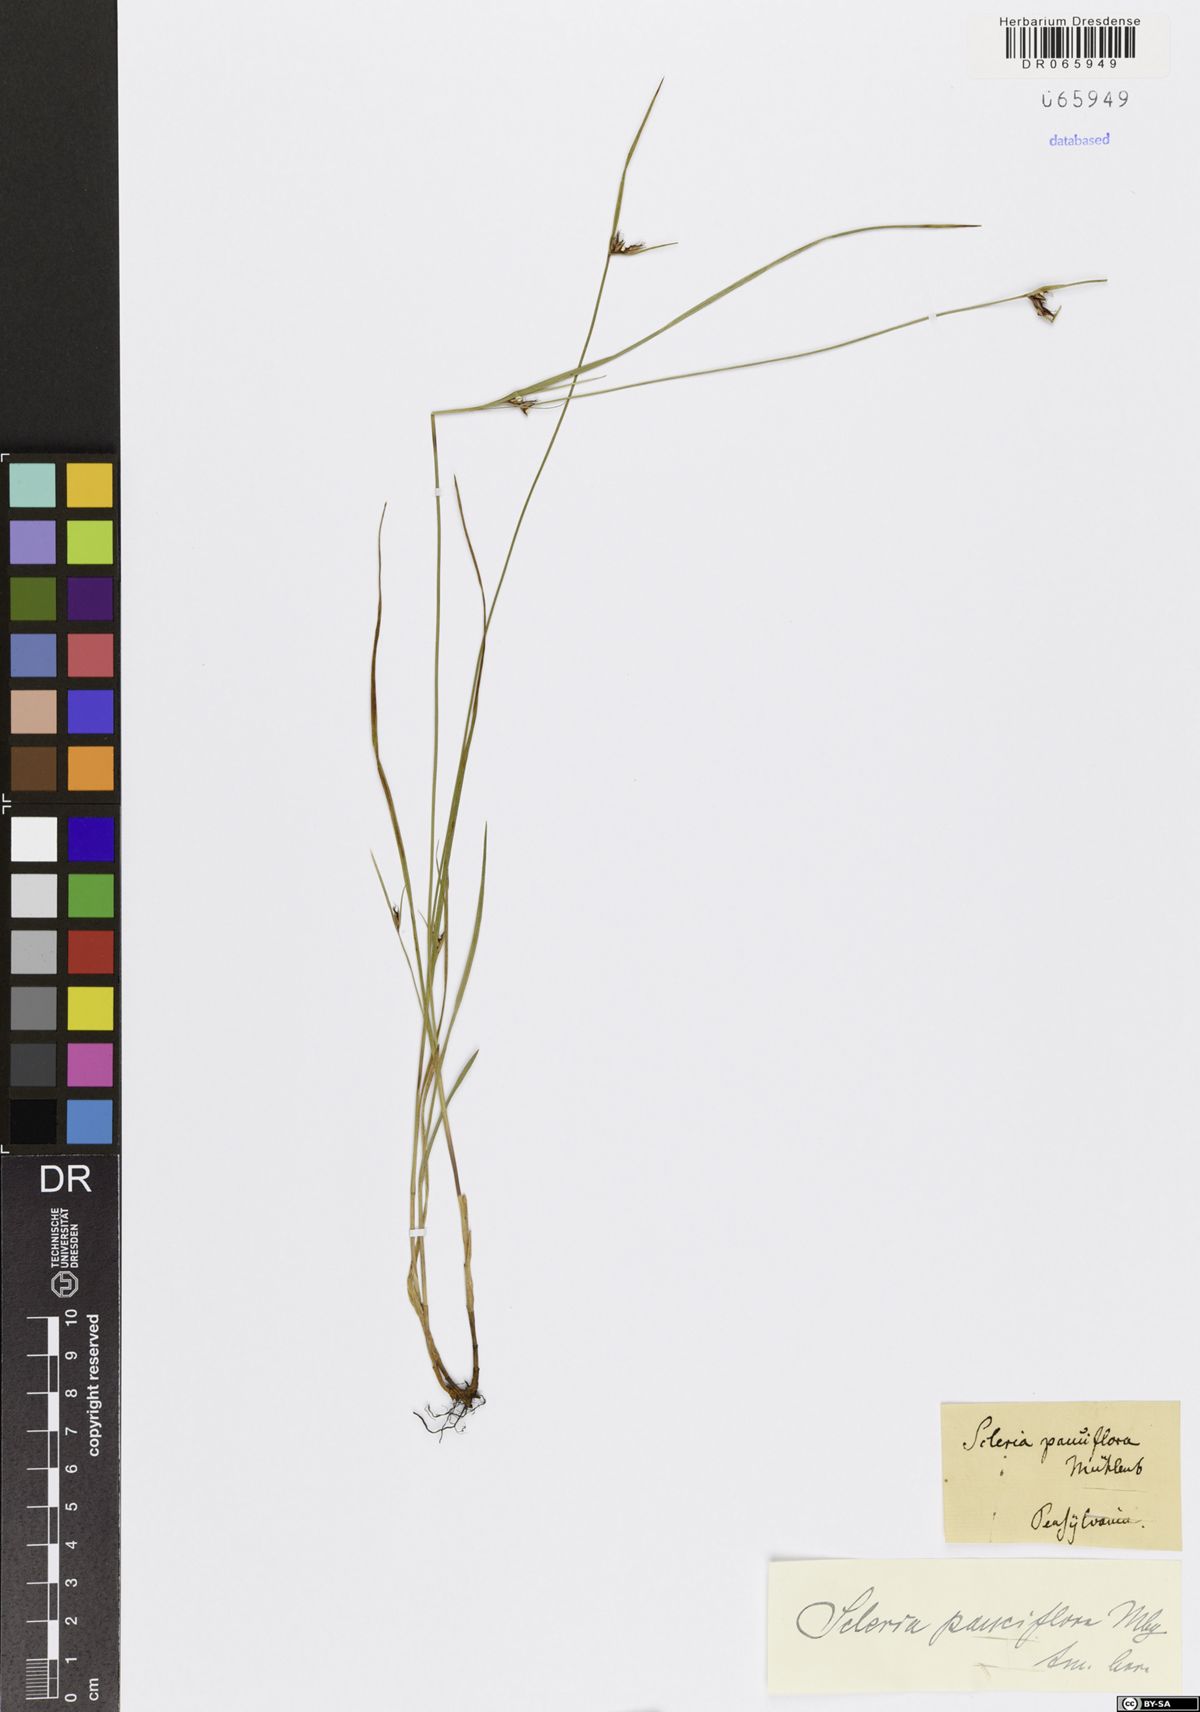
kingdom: Plantae
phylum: Tracheophyta
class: Liliopsida
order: Poales
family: Cyperaceae
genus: Scleria
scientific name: Scleria pauciflora
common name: Few-flowered nutrush
